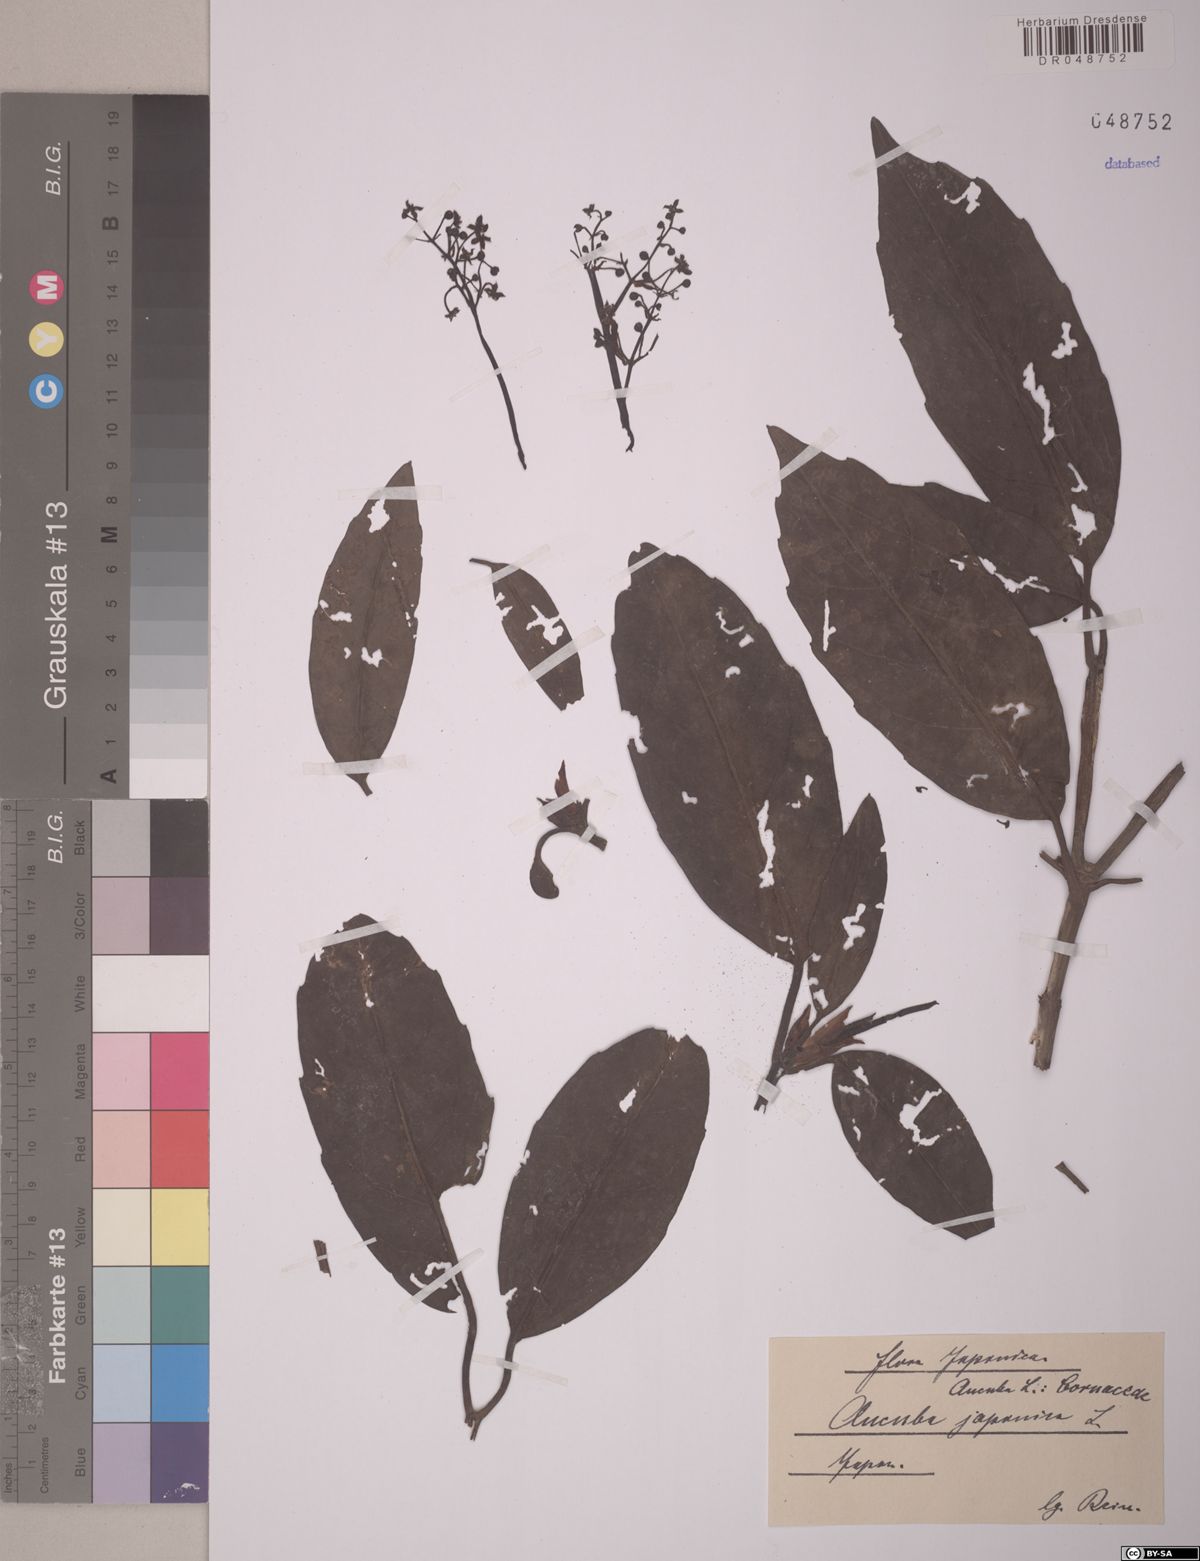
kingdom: Plantae
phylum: Tracheophyta
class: Magnoliopsida
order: Garryales
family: Garryaceae
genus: Aucuba
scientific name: Aucuba japonica
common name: Spotted-laurel
